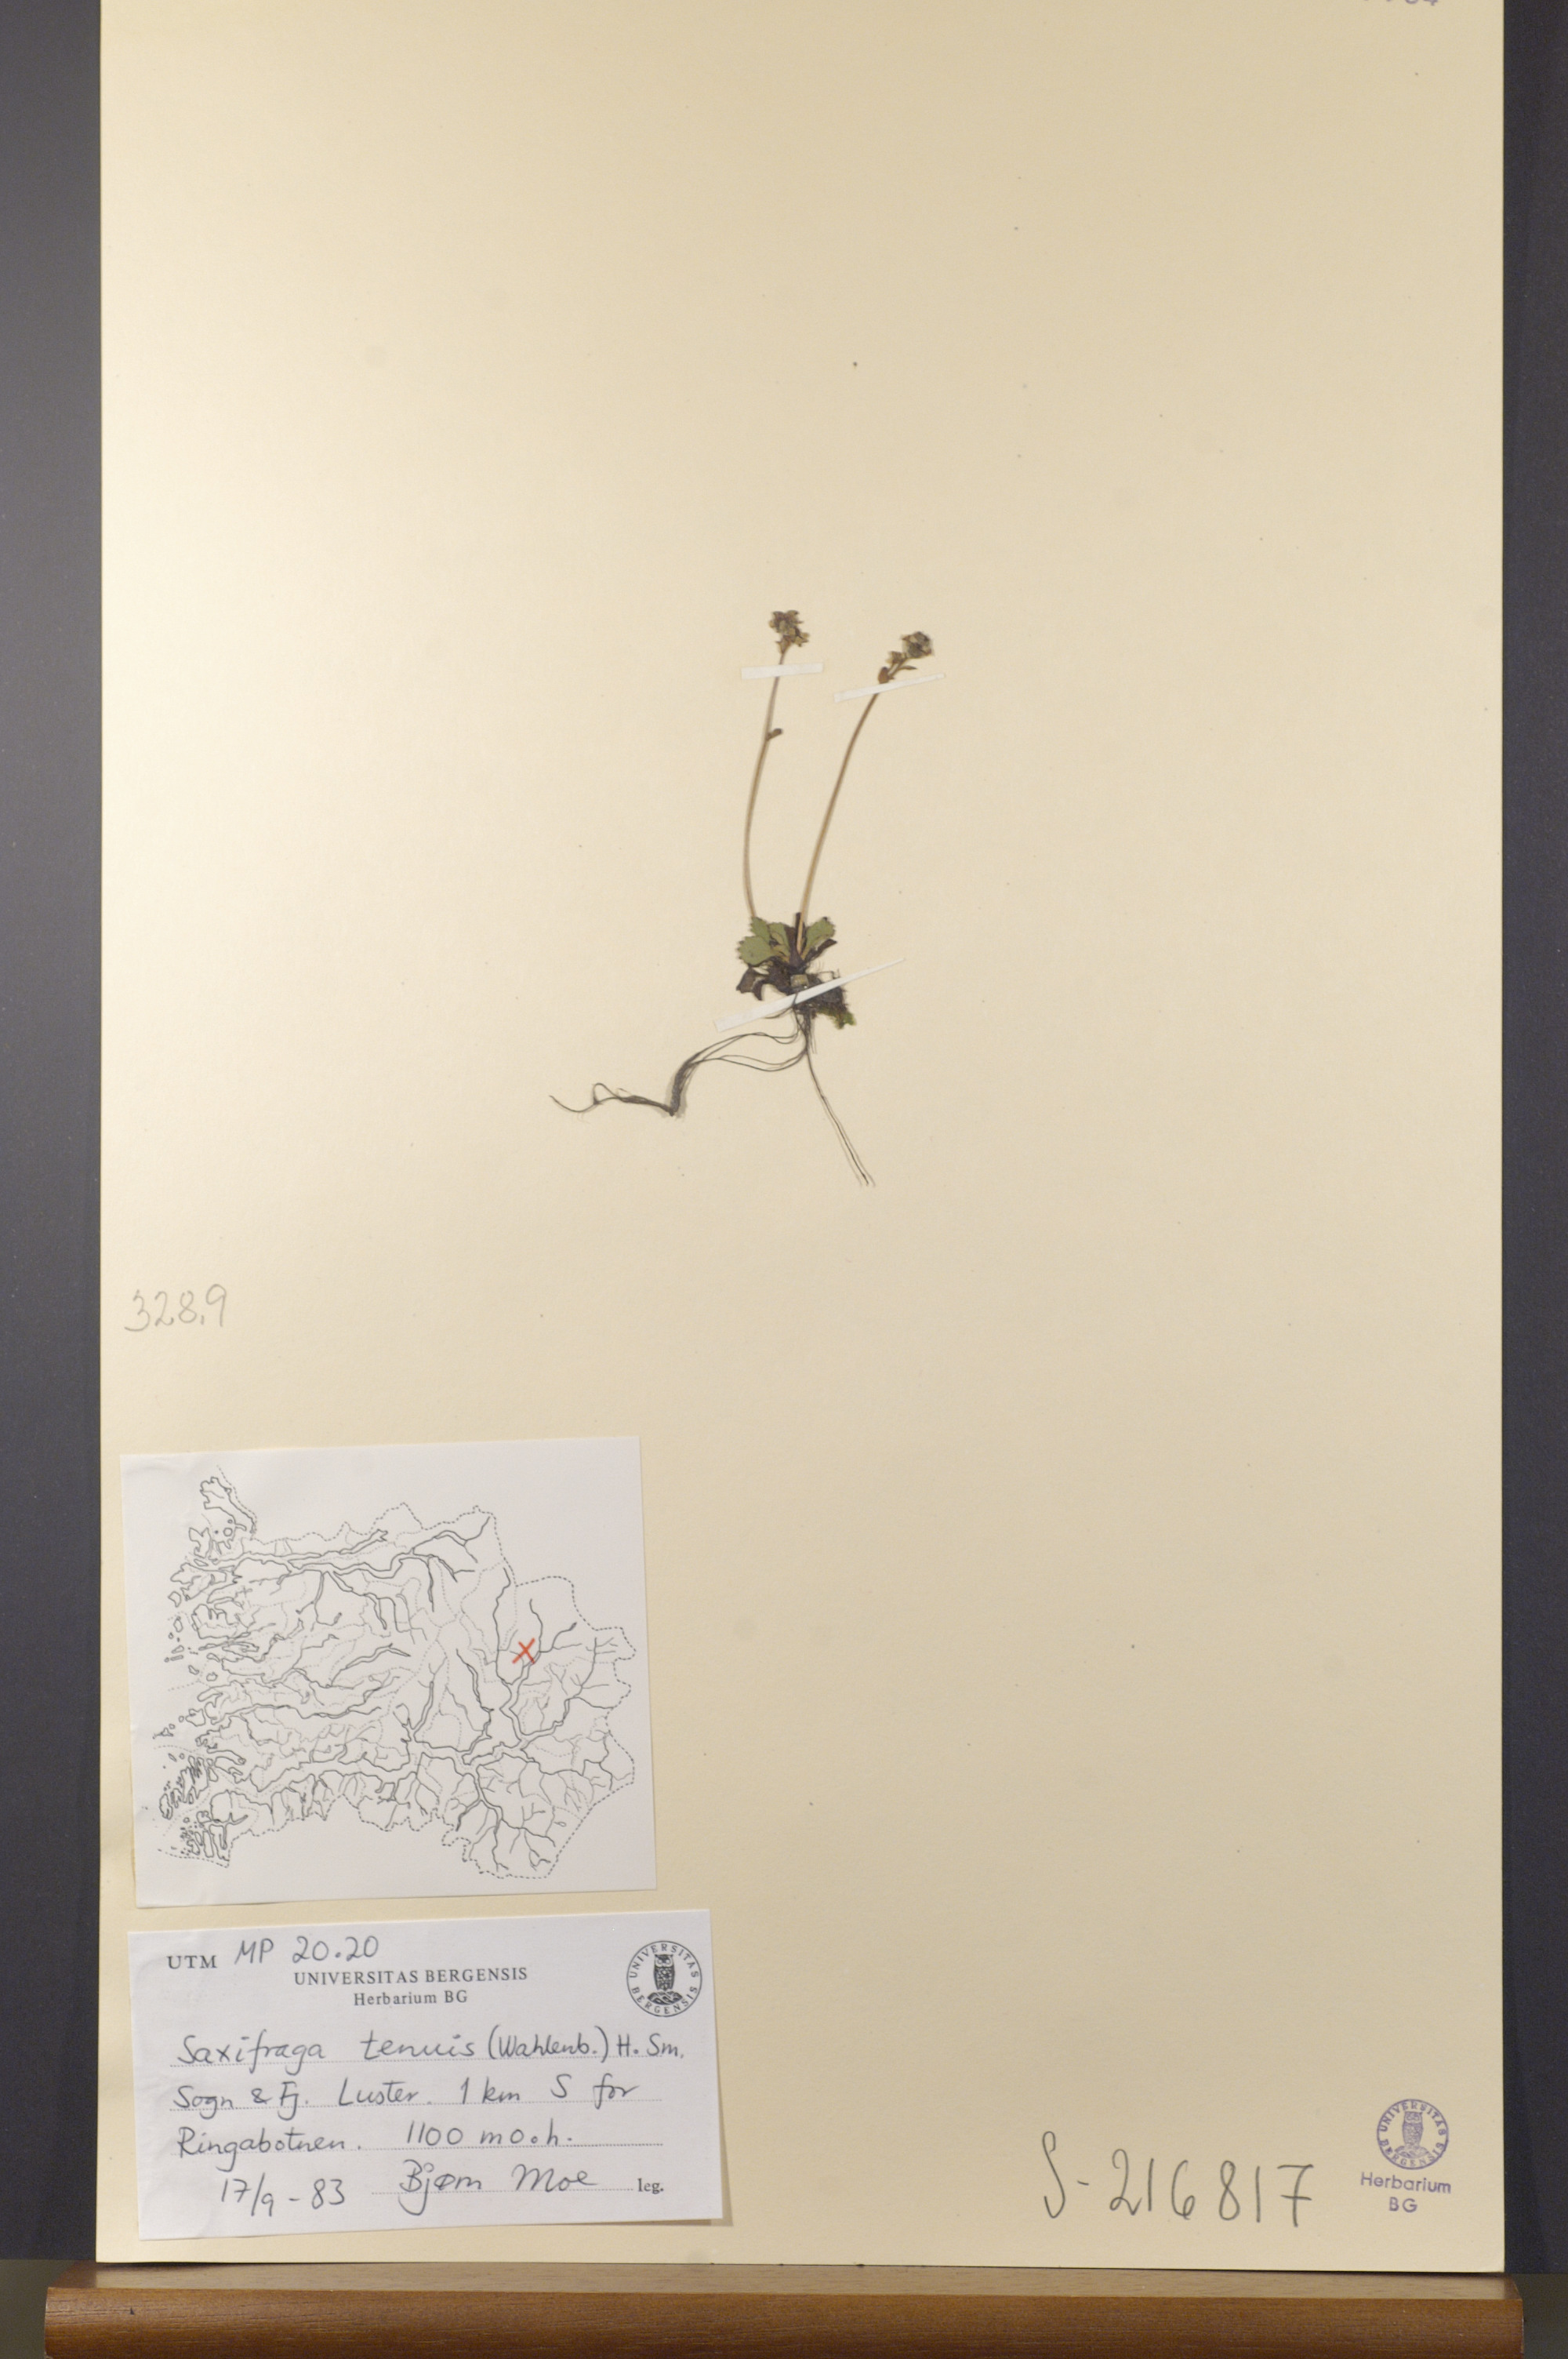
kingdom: Plantae
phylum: Tracheophyta
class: Magnoliopsida
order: Saxifragales
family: Saxifragaceae
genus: Micranthes
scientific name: Micranthes tenuis
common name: Ottertail pass saxifrage
